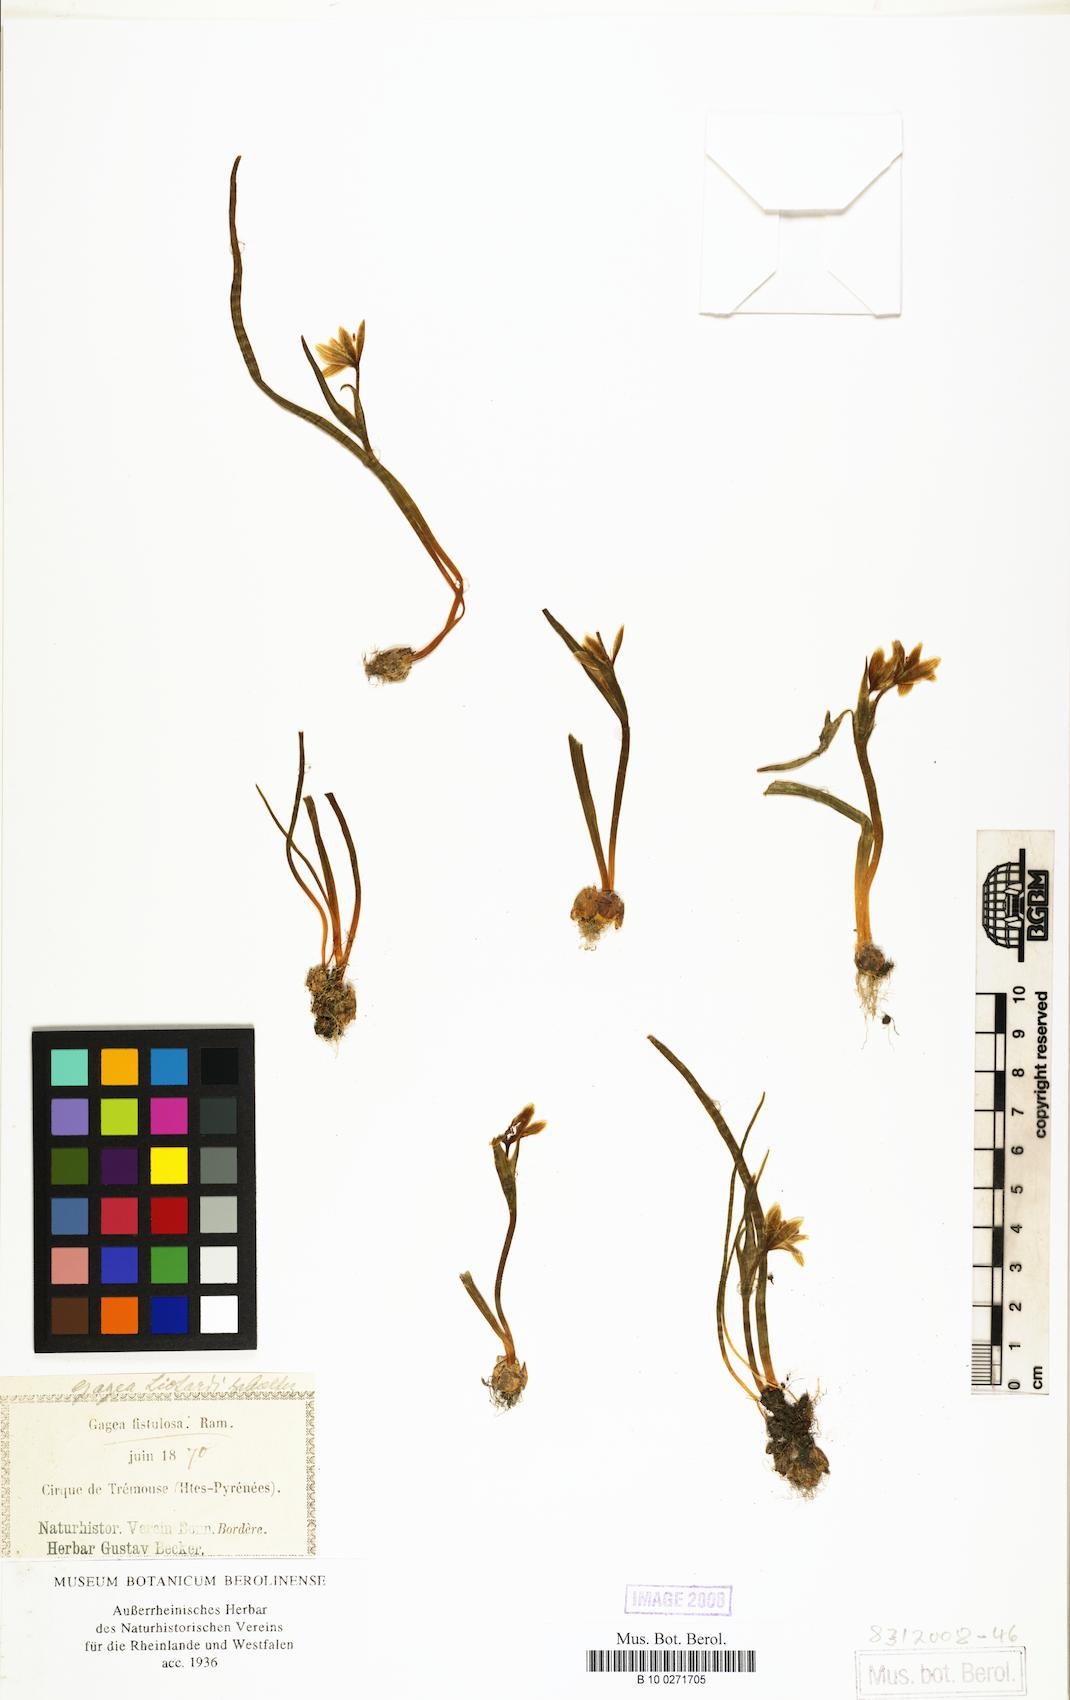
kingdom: Plantae
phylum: Tracheophyta
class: Liliopsida
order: Liliales
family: Liliaceae
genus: Gagea
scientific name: Gagea bohemica
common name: Early star-of-bethlehem
